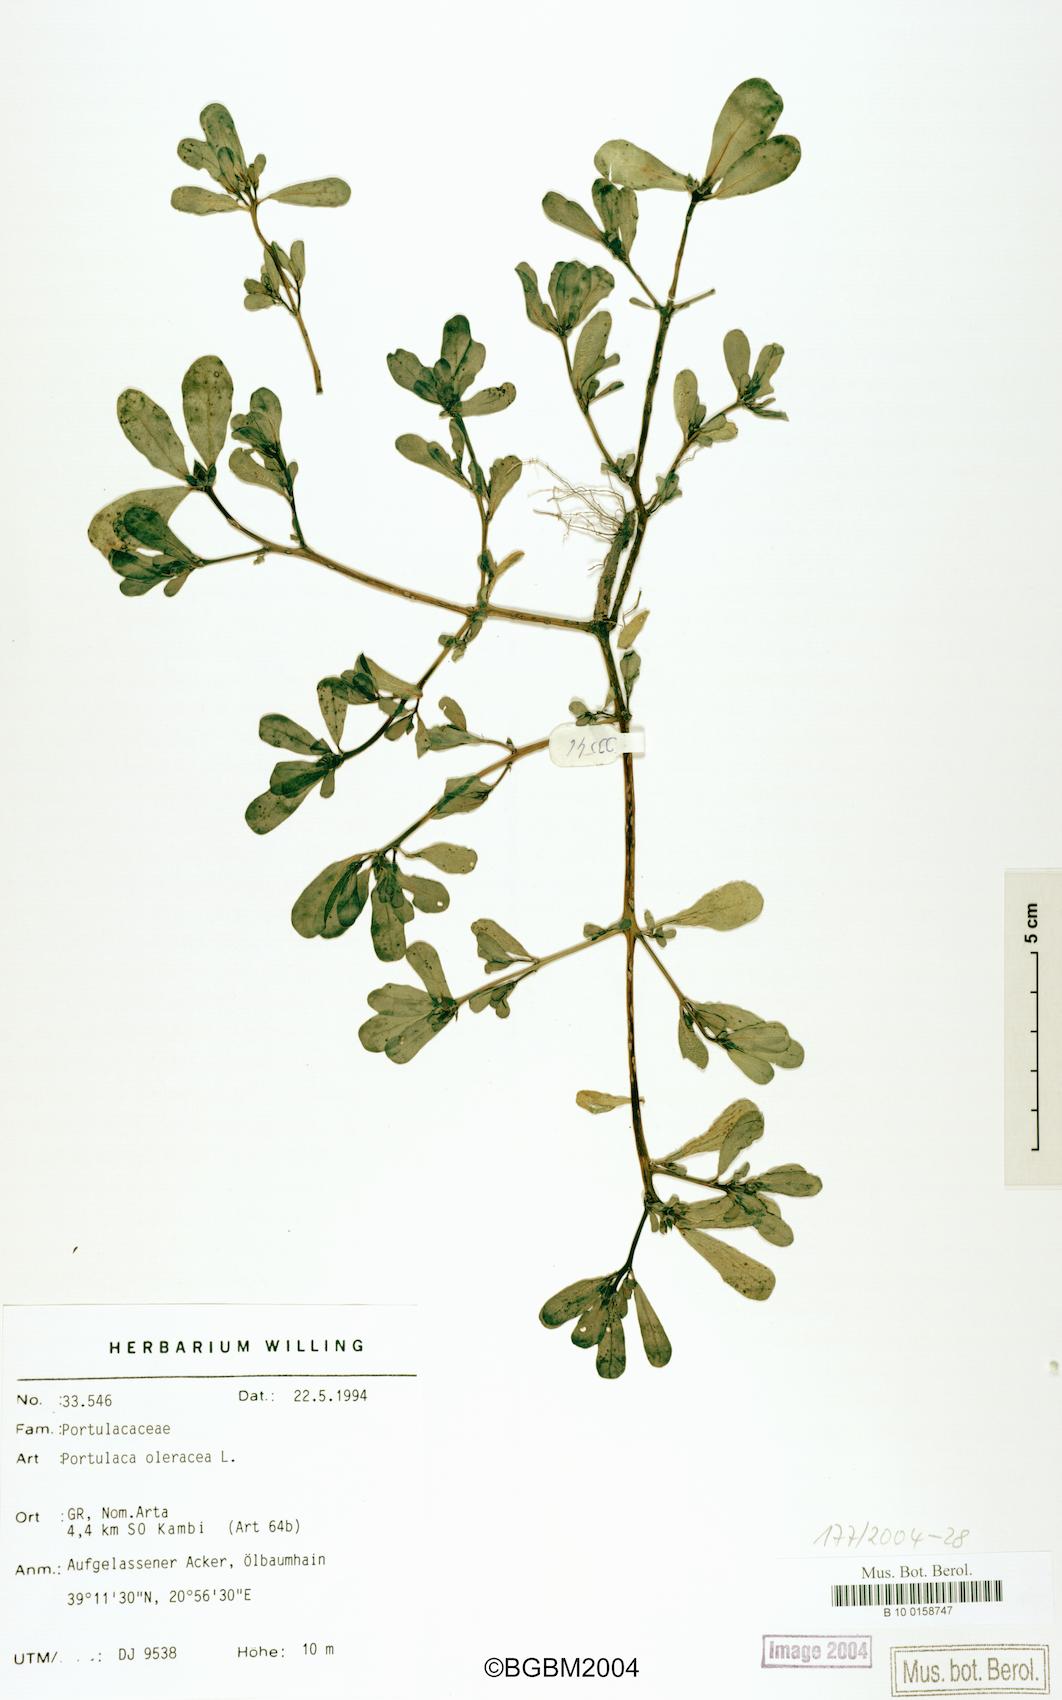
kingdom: Plantae
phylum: Tracheophyta
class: Magnoliopsida
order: Caryophyllales
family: Portulacaceae
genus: Portulaca
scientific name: Portulaca oleracea
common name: Common purslane
